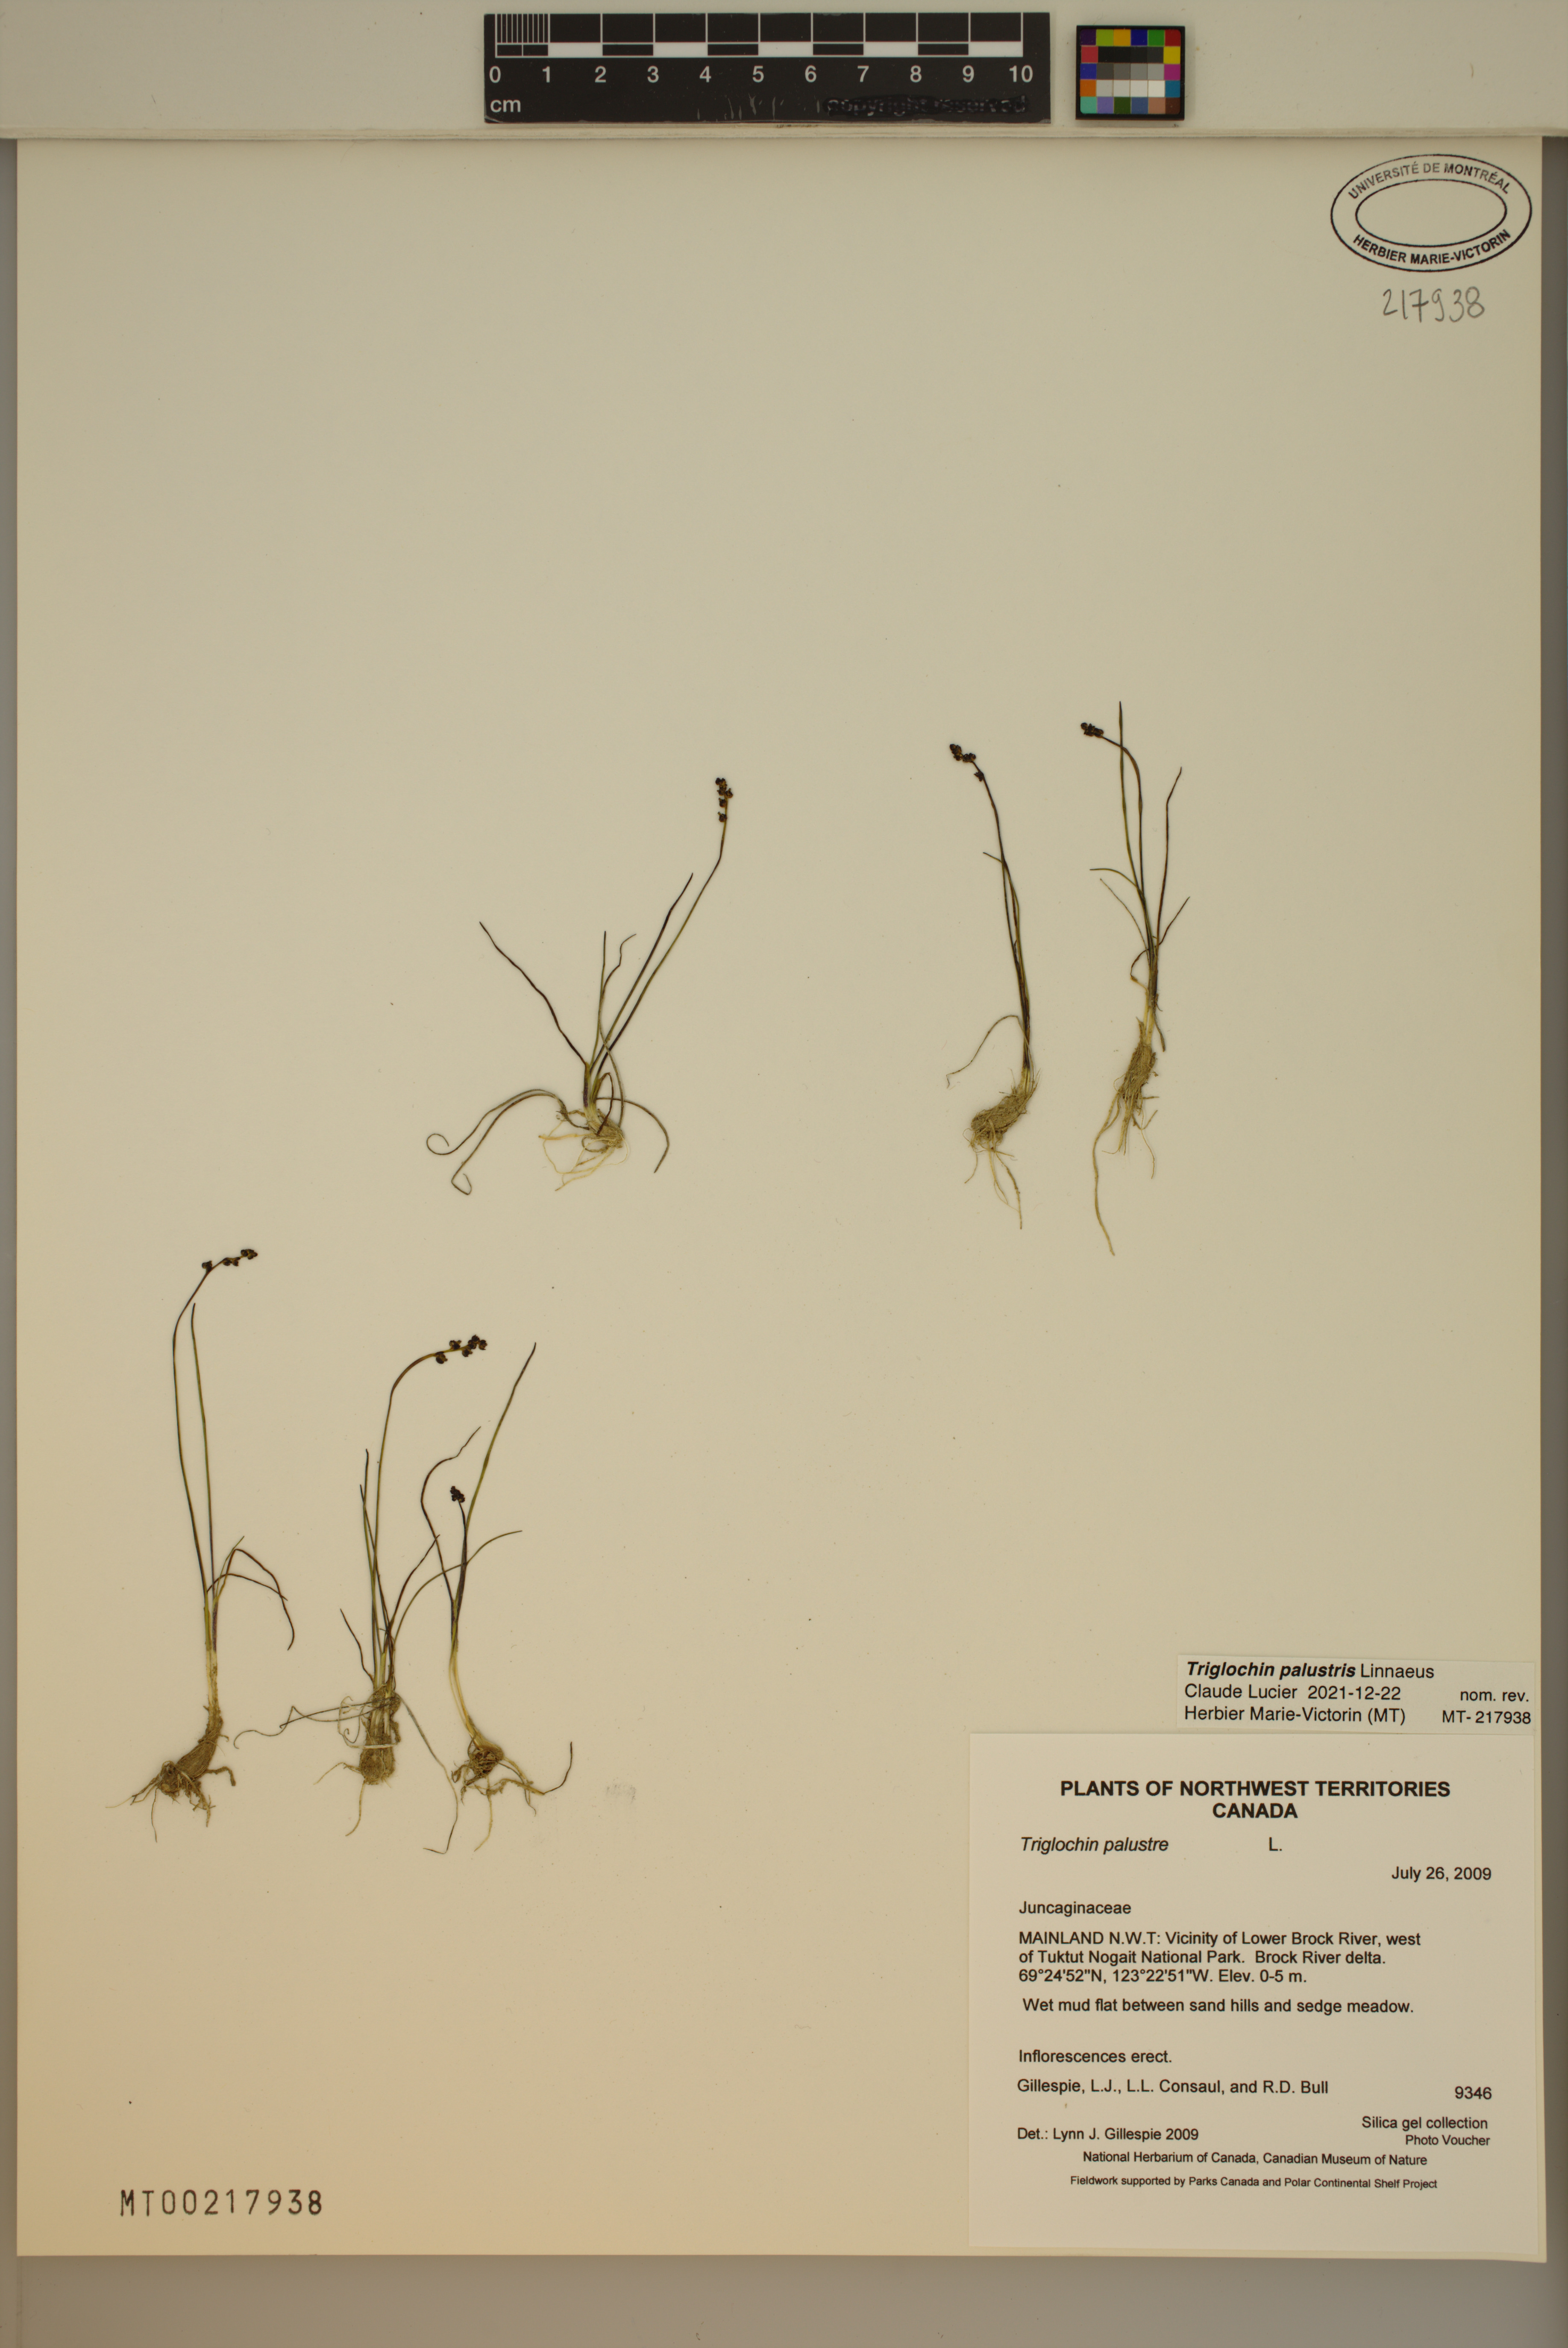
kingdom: Plantae
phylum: Tracheophyta
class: Liliopsida
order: Alismatales
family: Juncaginaceae
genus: Triglochin
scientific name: Triglochin palustris
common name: Marsh arrowgrass
